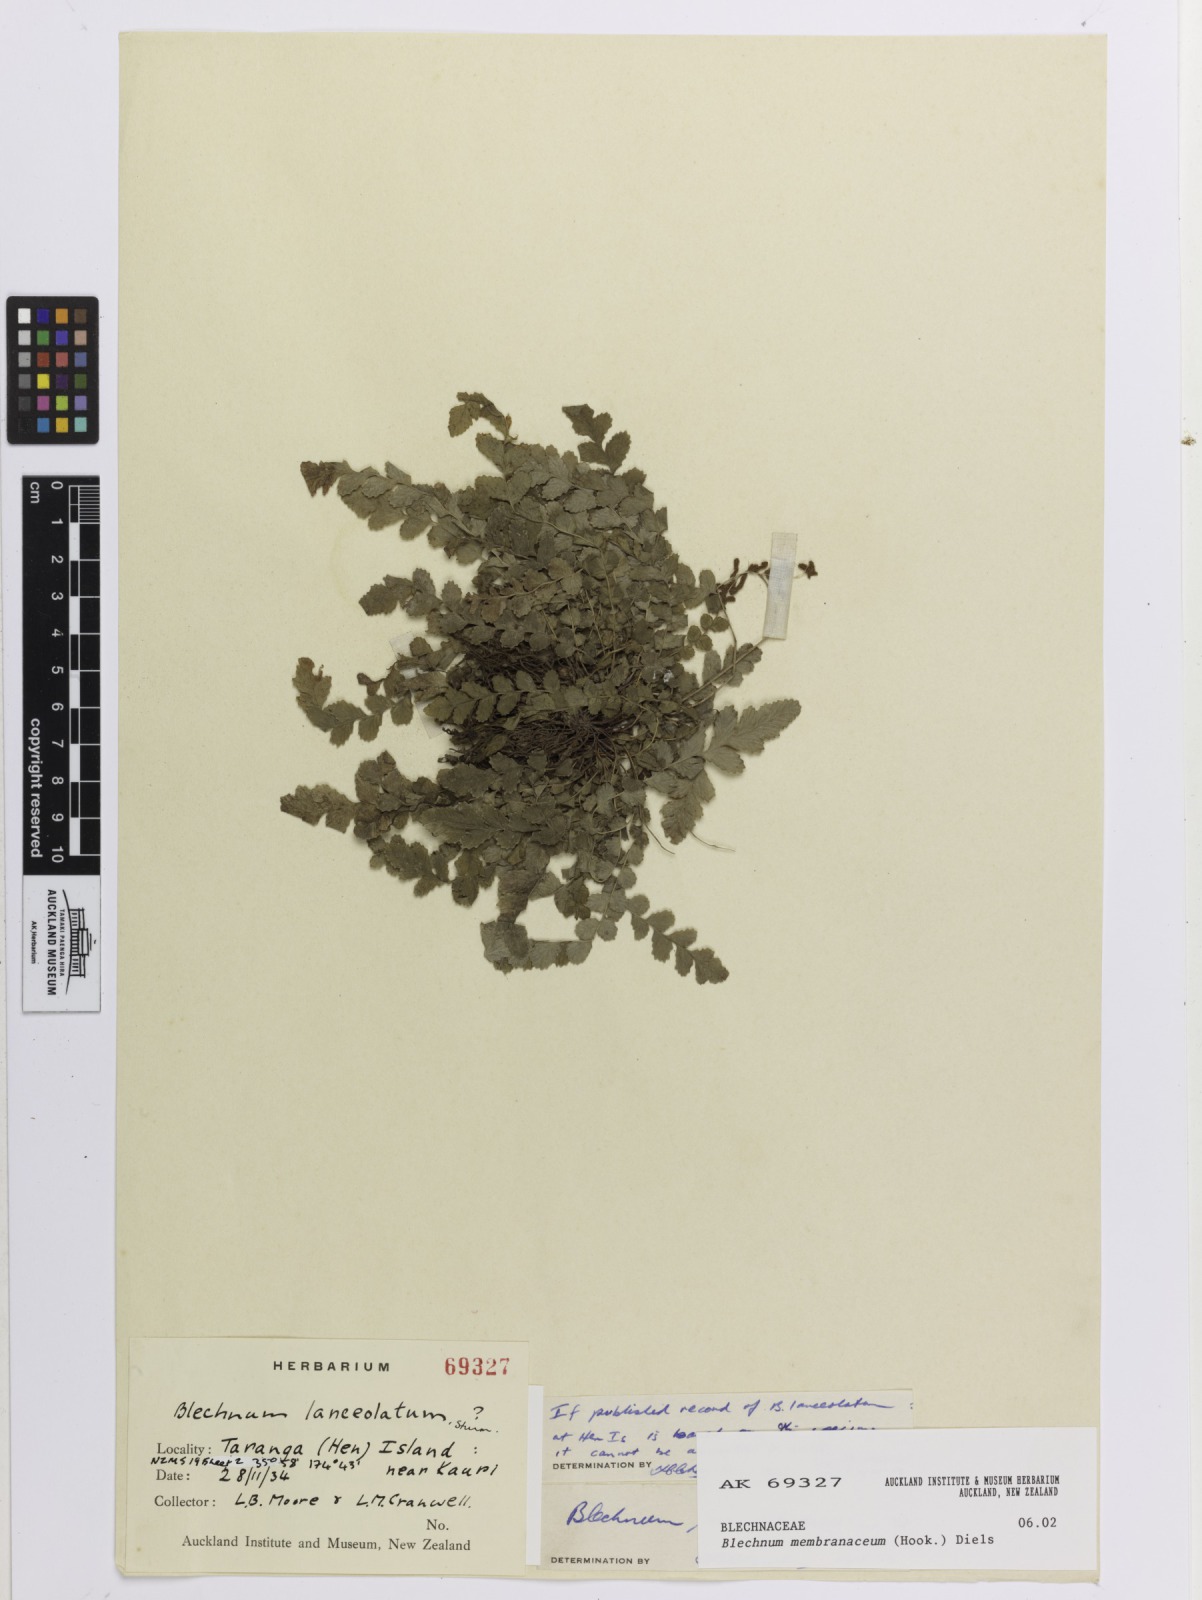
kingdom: Plantae
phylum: Tracheophyta
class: Polypodiopsida
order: Polypodiales
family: Blechnaceae
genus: Austroblechnum
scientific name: Austroblechnum membranaceum
